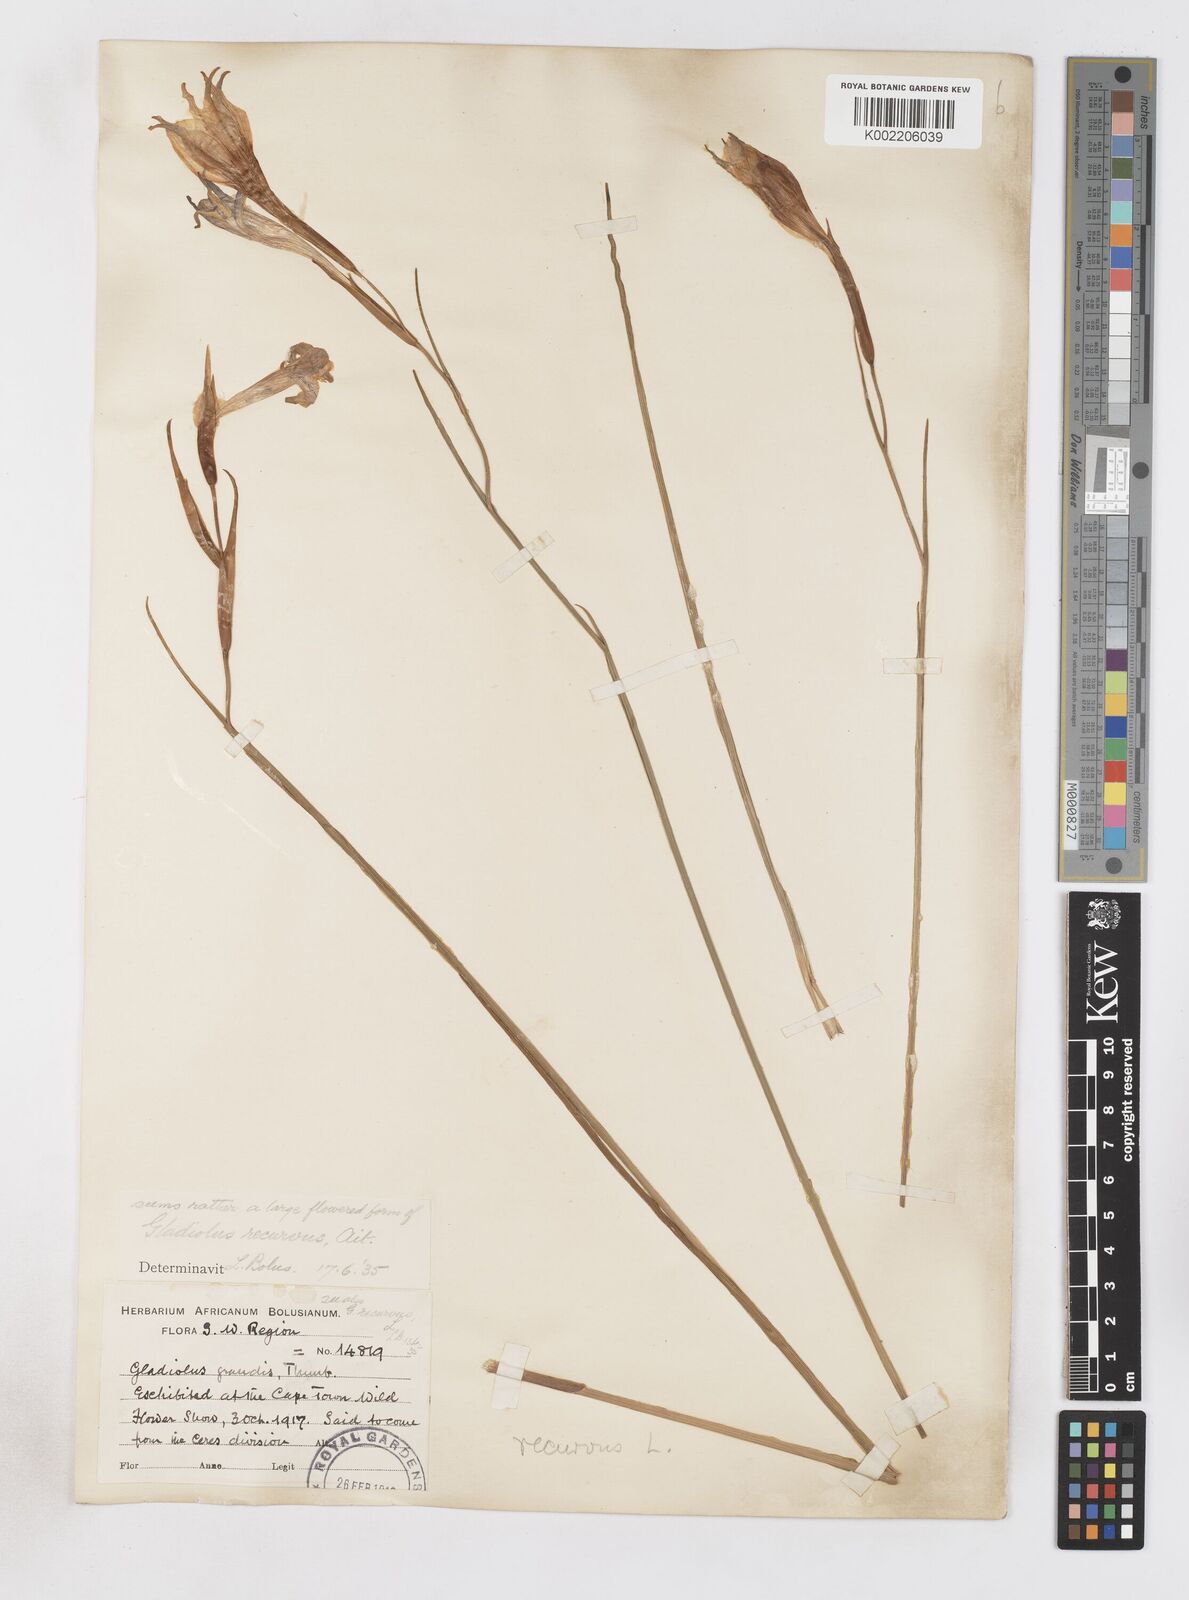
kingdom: Plantae
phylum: Tracheophyta
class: Liliopsida
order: Asparagales
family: Iridaceae
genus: Gladiolus
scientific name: Gladiolus recurvus
